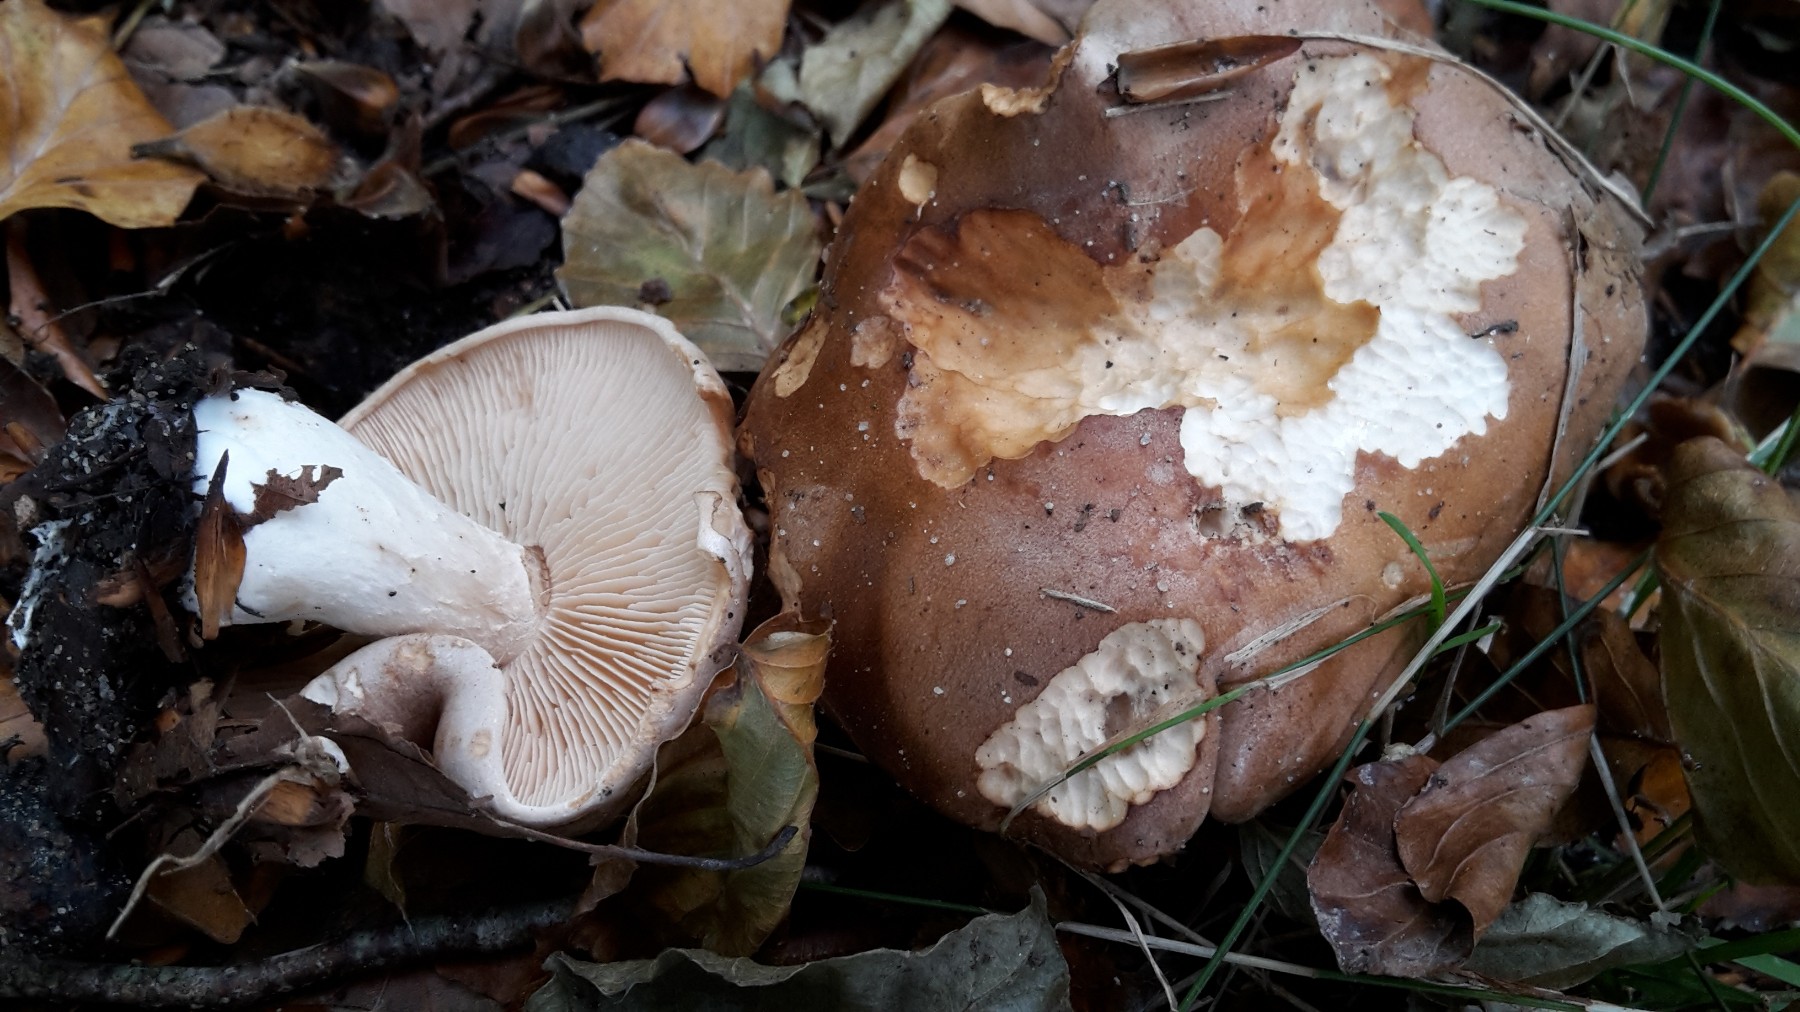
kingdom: Fungi
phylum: Basidiomycota
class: Agaricomycetes
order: Agaricales
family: Hymenogastraceae
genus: Hebeloma
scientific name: Hebeloma sinapizans
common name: ræddike-tåreblad
